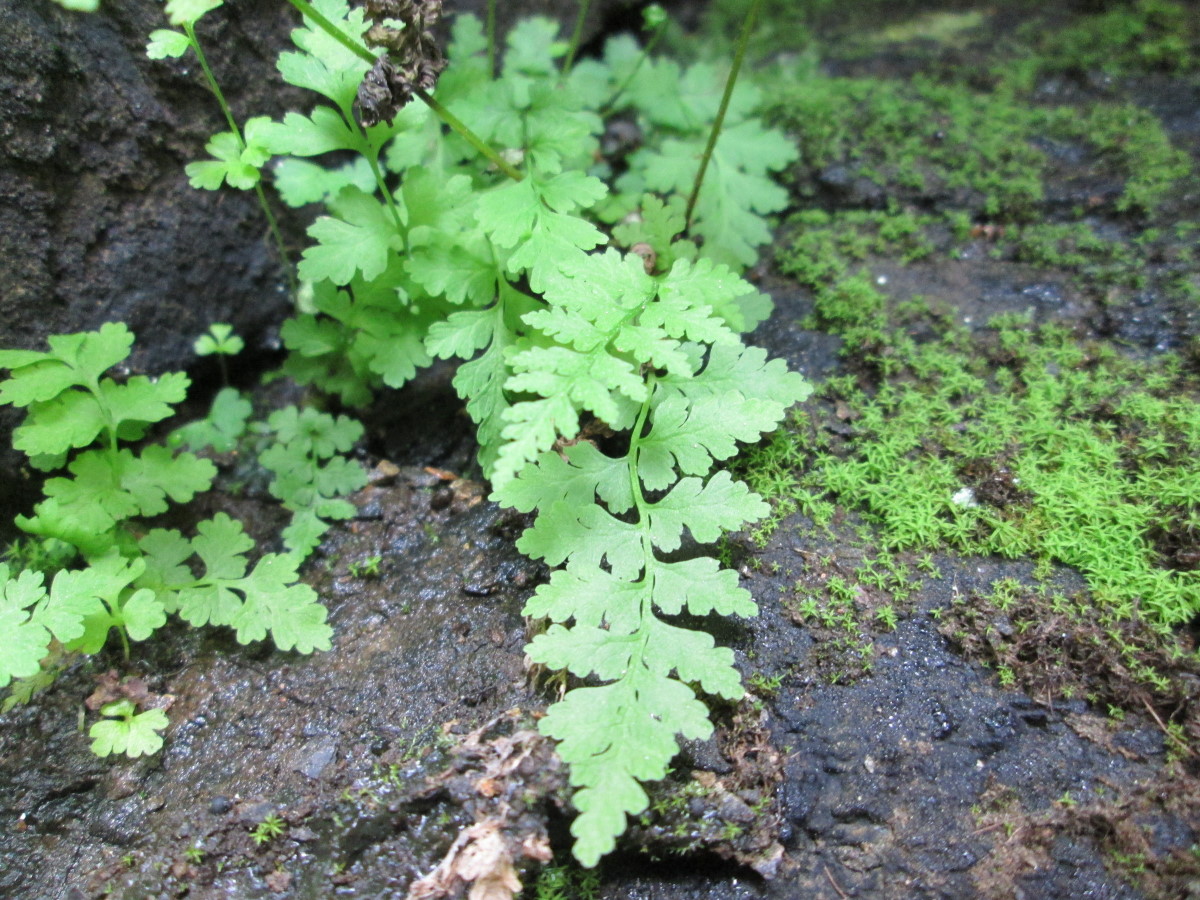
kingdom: Plantae
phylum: Tracheophyta
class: Polypodiopsida
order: Polypodiales
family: Cystopteridaceae
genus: Cystopteris
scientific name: Cystopteris fragilis
